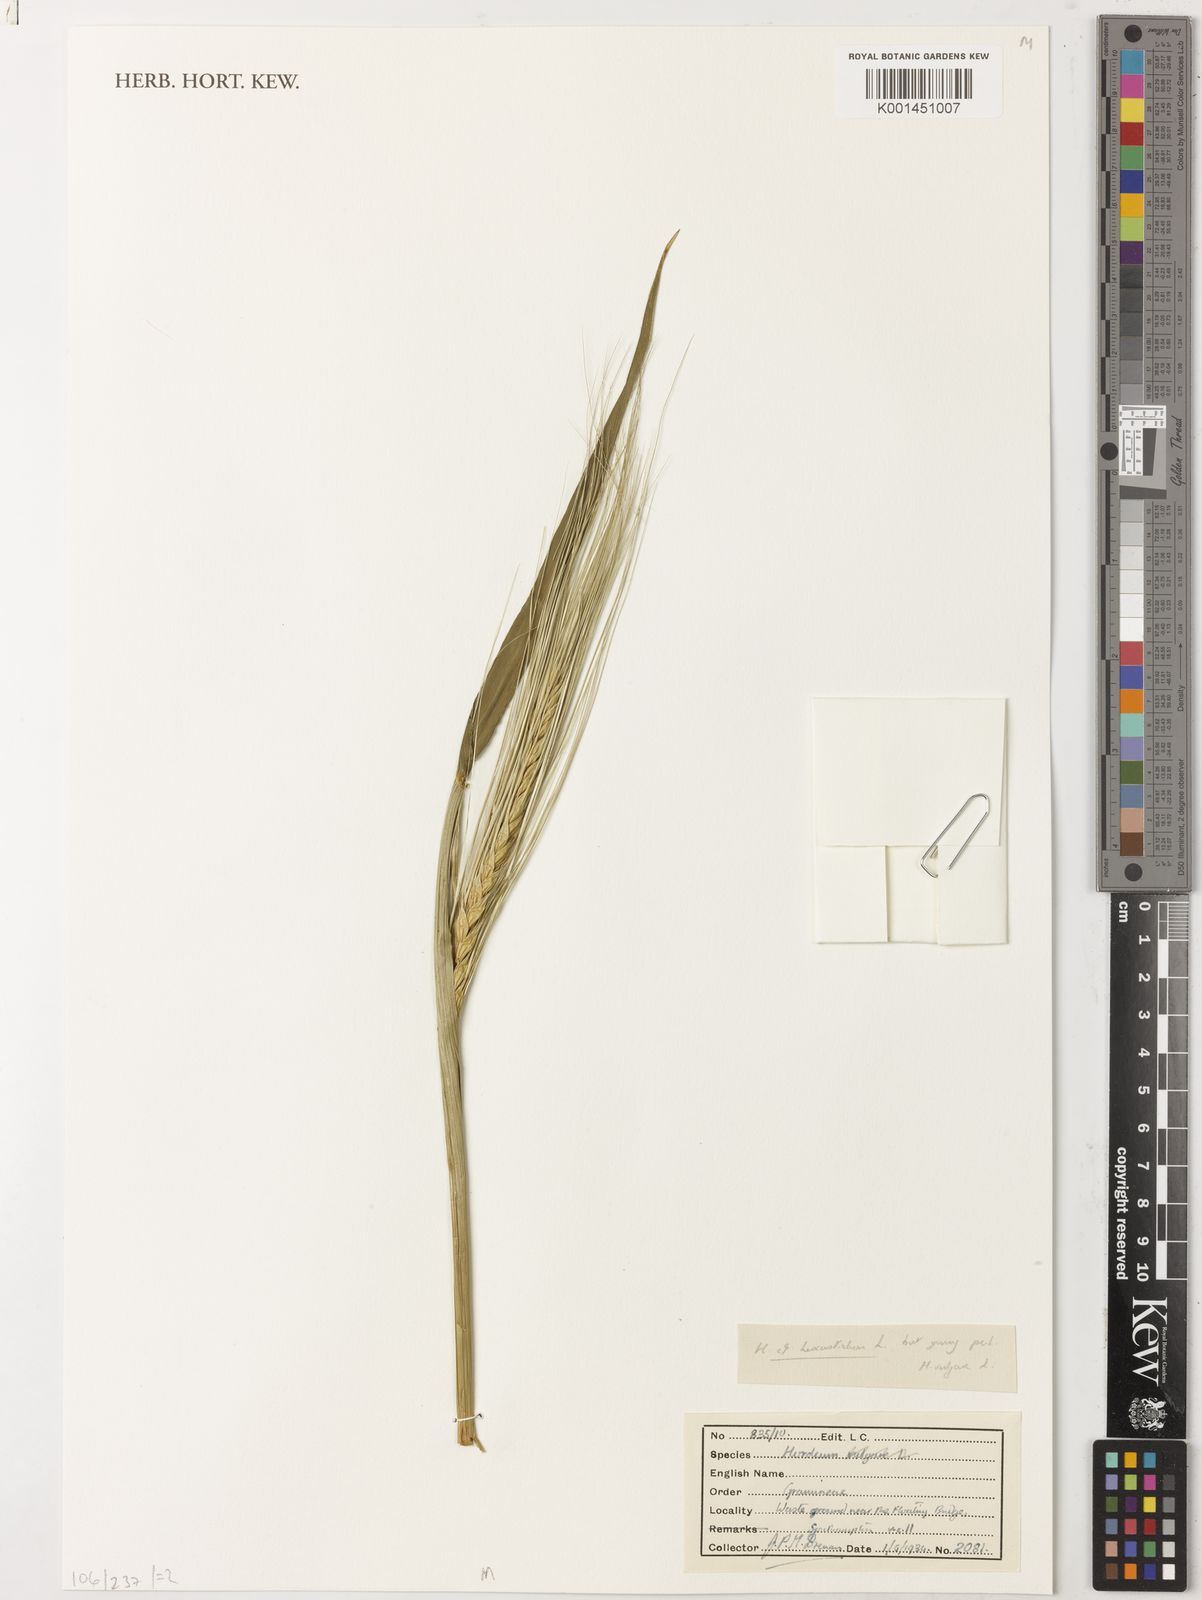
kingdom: Plantae
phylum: Tracheophyta
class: Liliopsida
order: Poales
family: Poaceae
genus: Hordeum
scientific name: Hordeum vulgare
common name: Common barley
